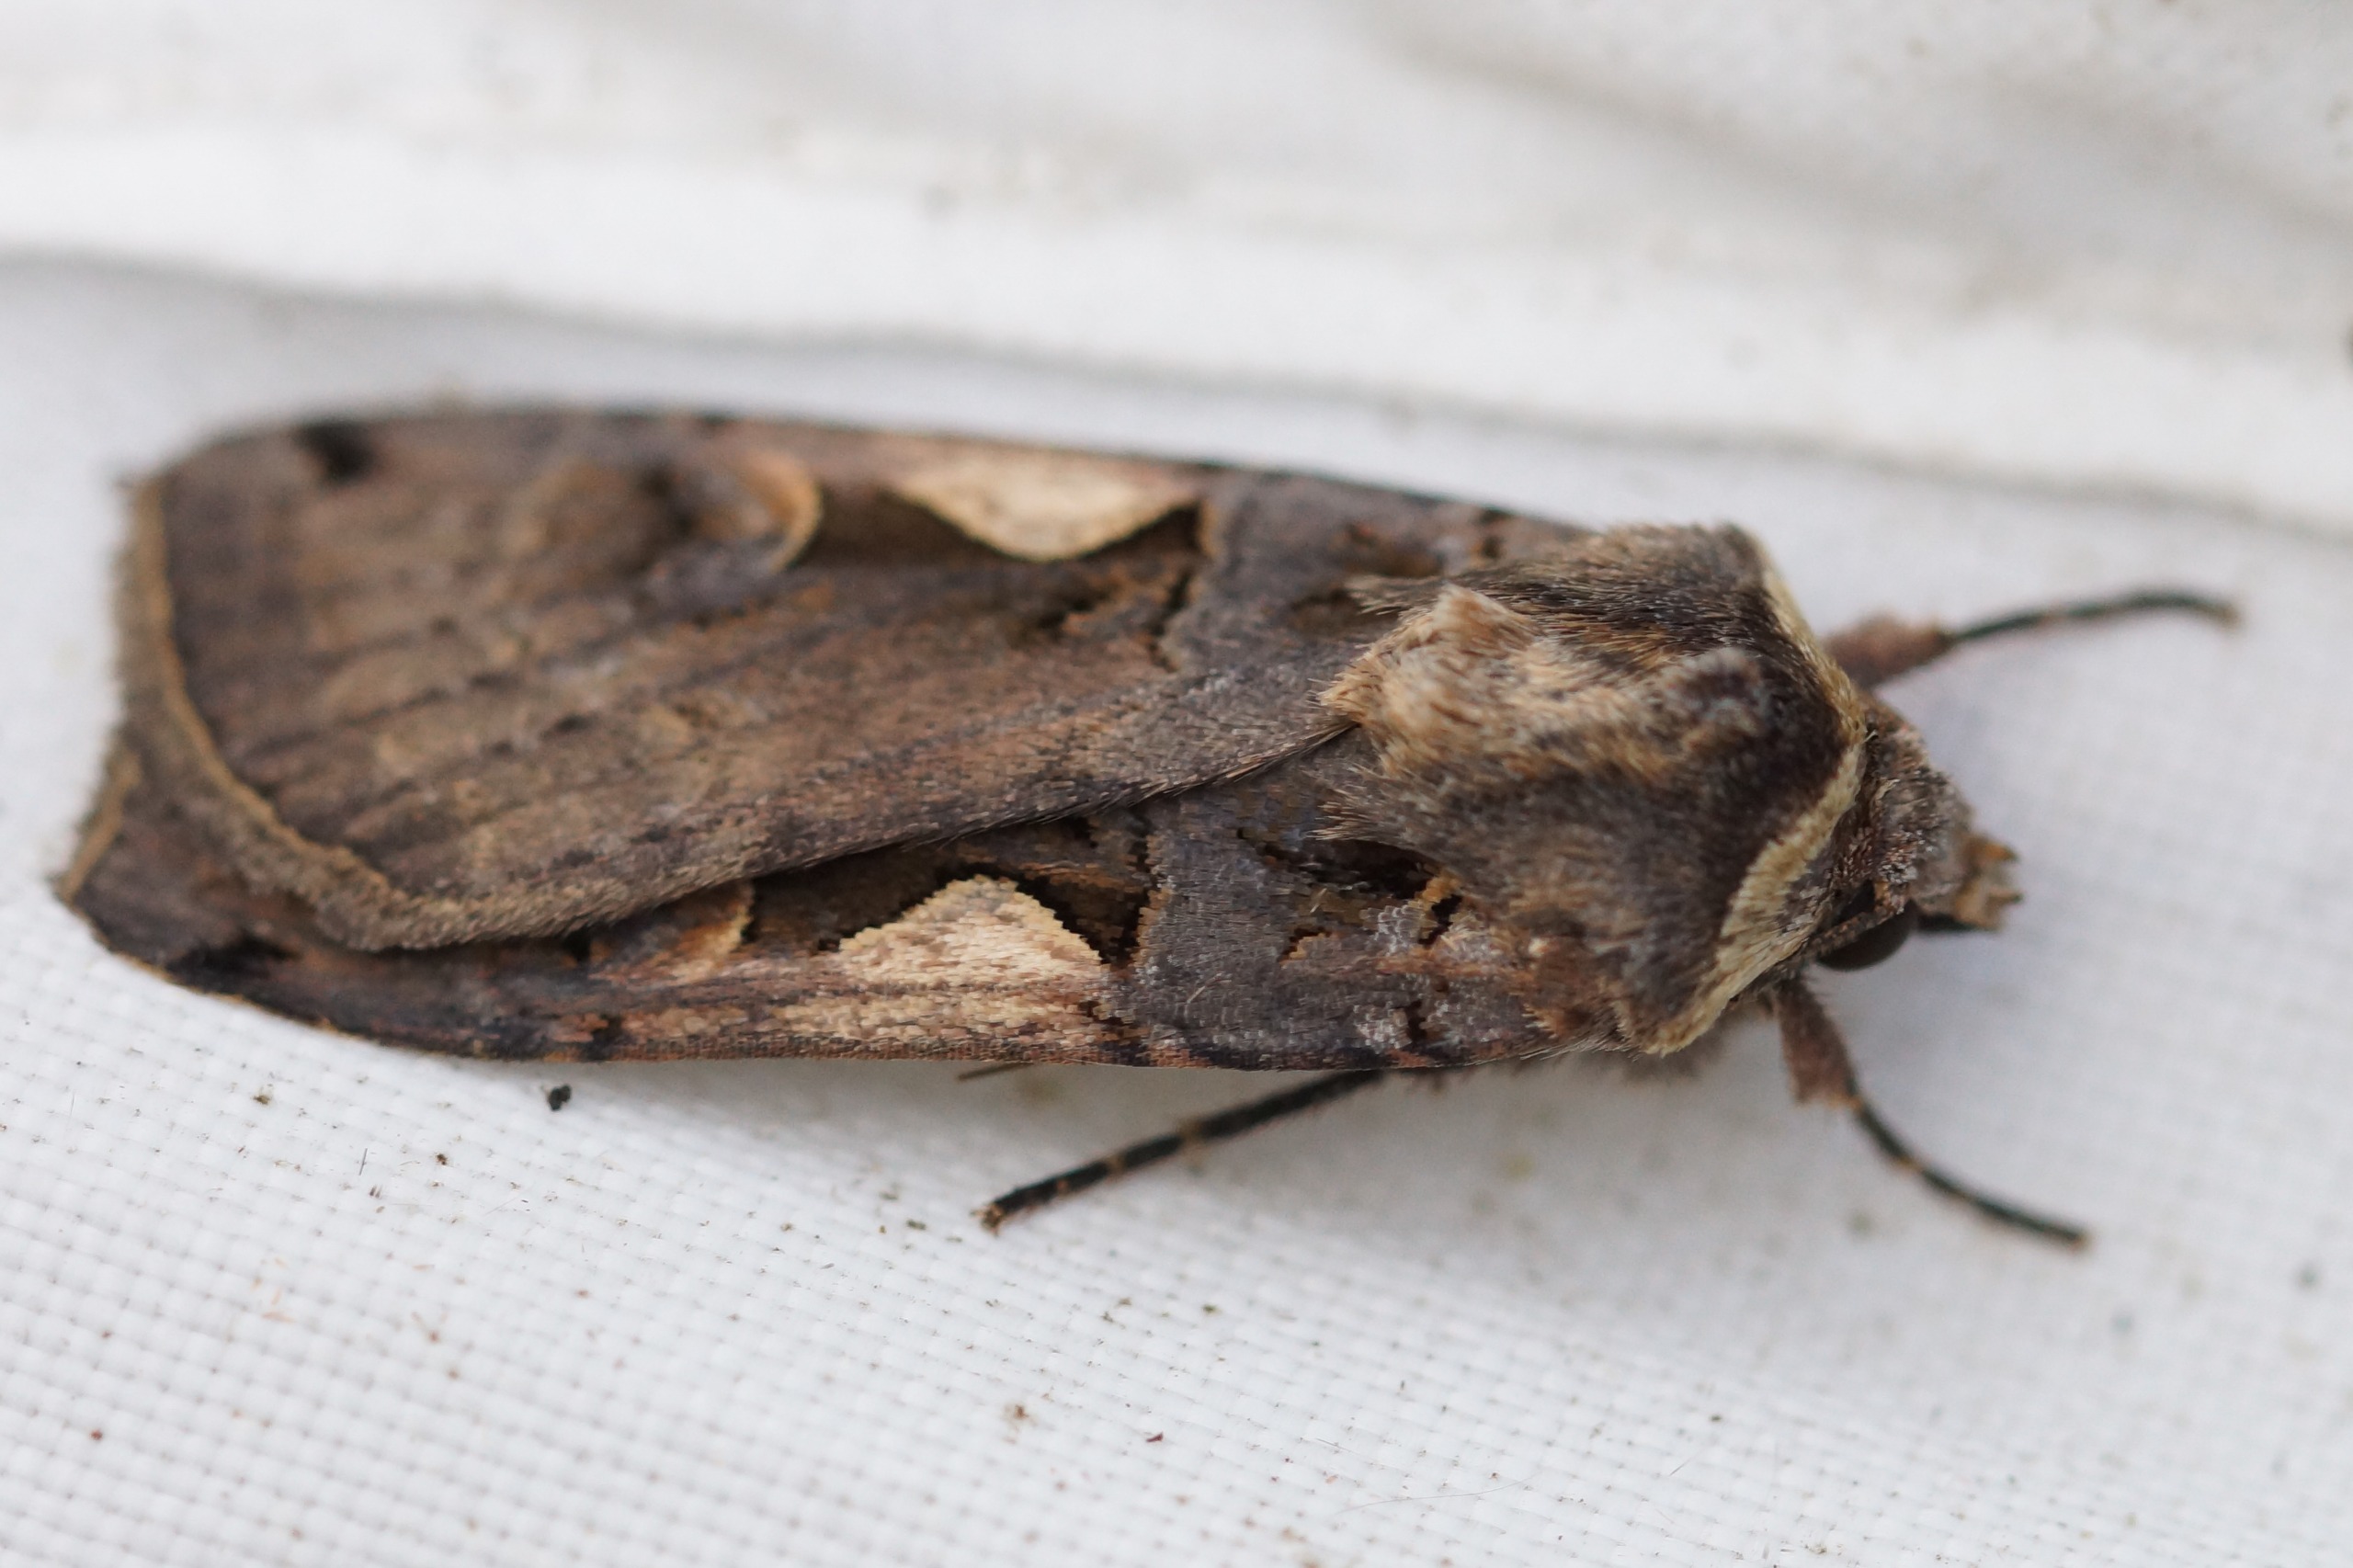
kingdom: Animalia
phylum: Arthropoda
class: Insecta
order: Lepidoptera
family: Noctuidae
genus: Xestia
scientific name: Xestia c-nigrum
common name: Det sorte c
